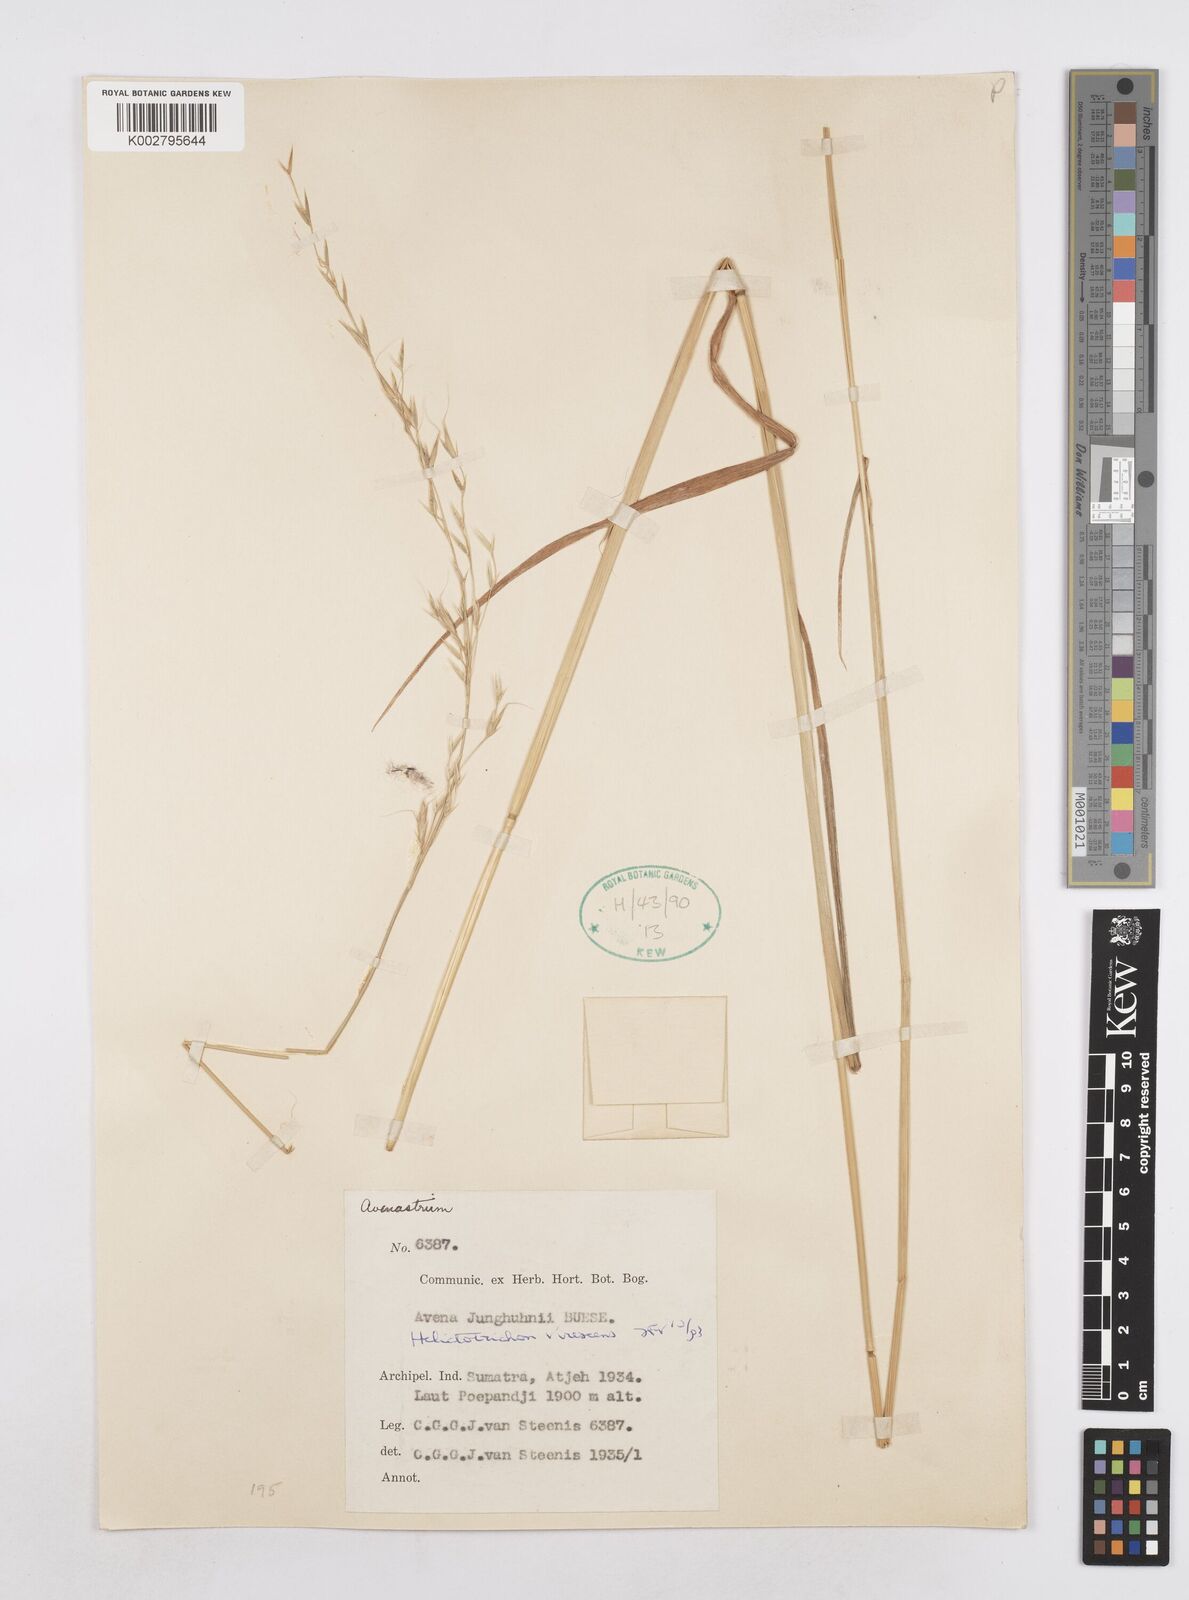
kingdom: Plantae
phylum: Tracheophyta
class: Liliopsida
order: Poales
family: Poaceae
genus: Trisetopsis
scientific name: Trisetopsis junghuhnii
